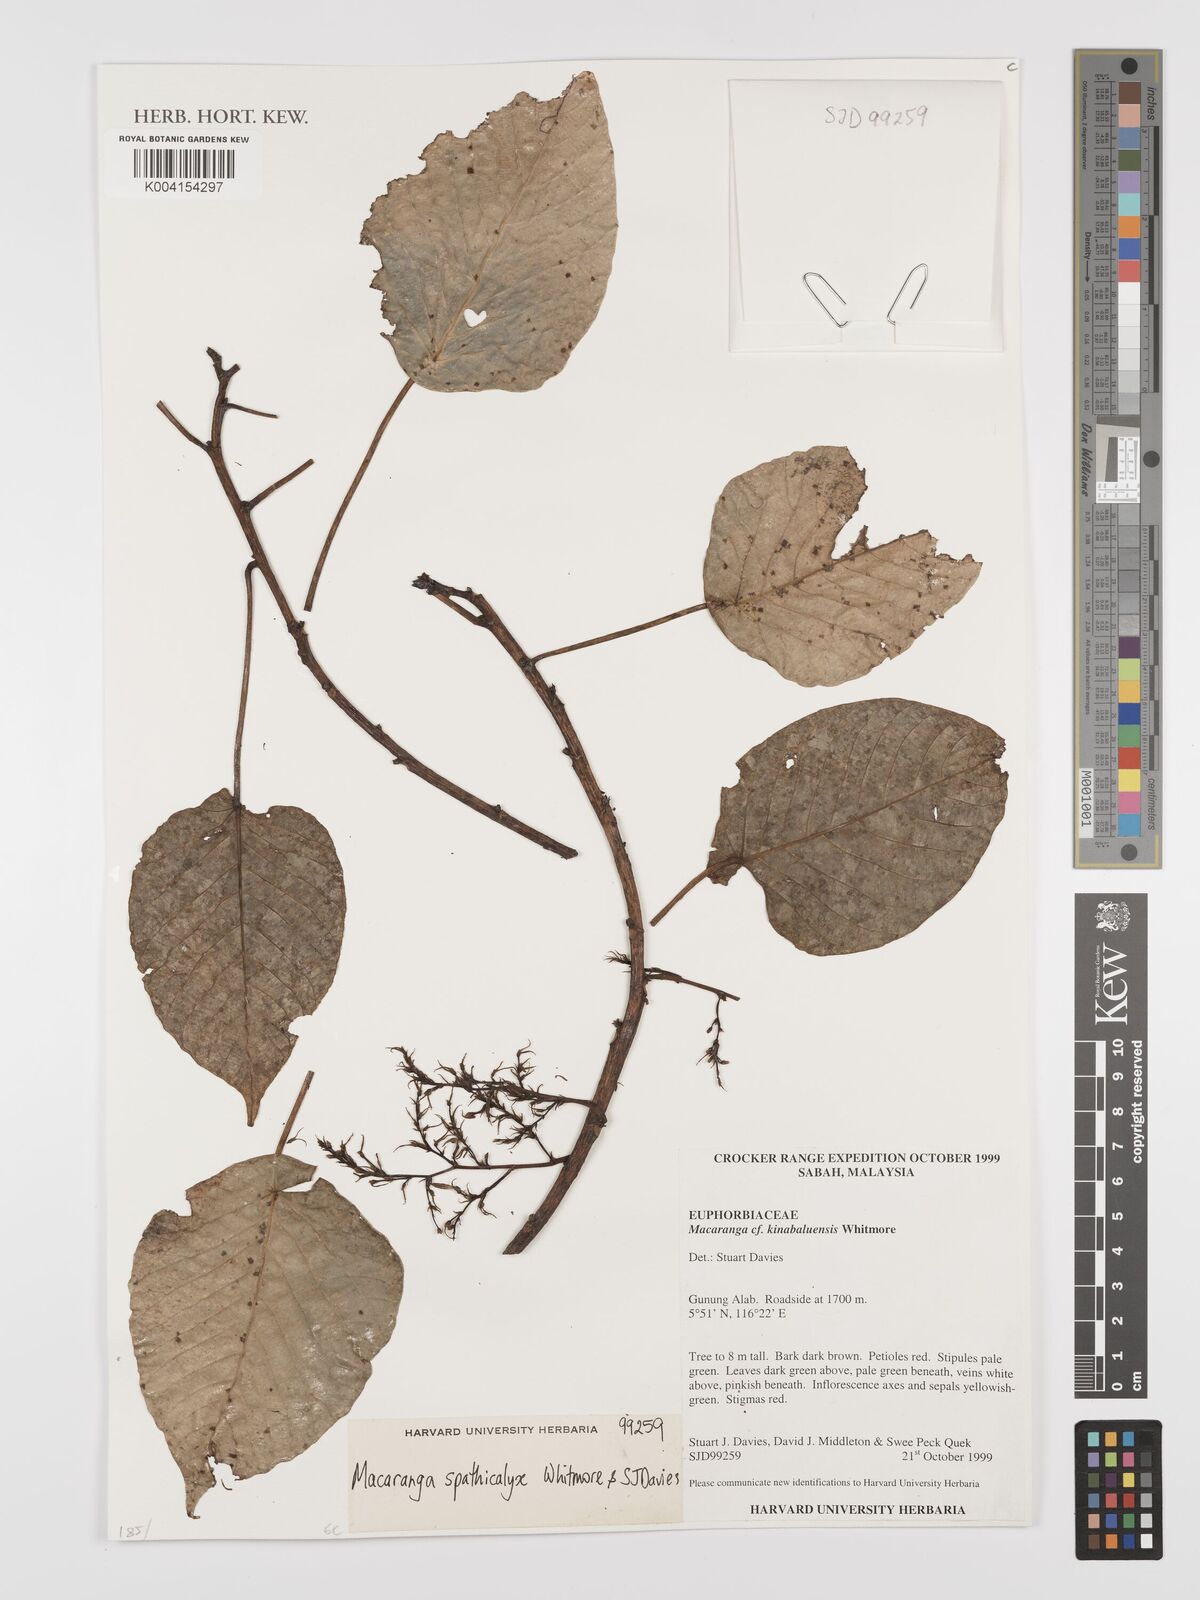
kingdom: Plantae
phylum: Tracheophyta
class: Magnoliopsida
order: Malpighiales
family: Euphorbiaceae
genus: Macaranga
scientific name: Macaranga spathicalyx
